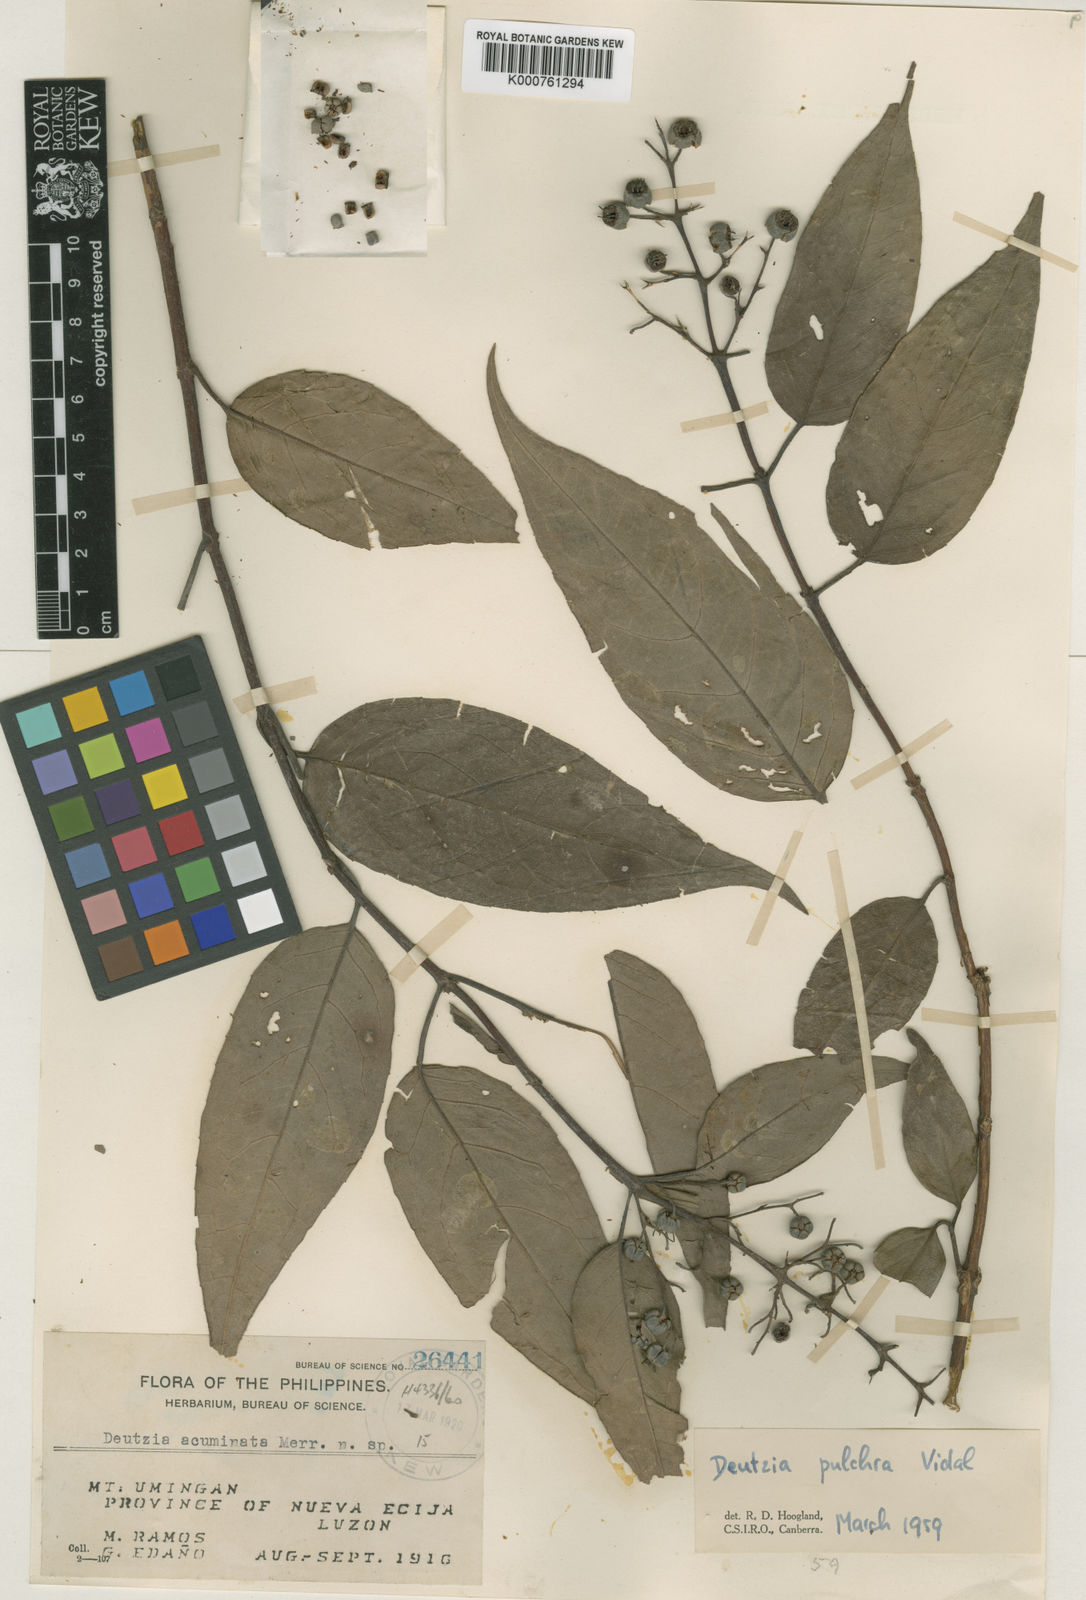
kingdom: Plantae
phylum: Tracheophyta
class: Magnoliopsida
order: Cornales
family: Hydrangeaceae
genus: Deutzia
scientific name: Deutzia pulchra
